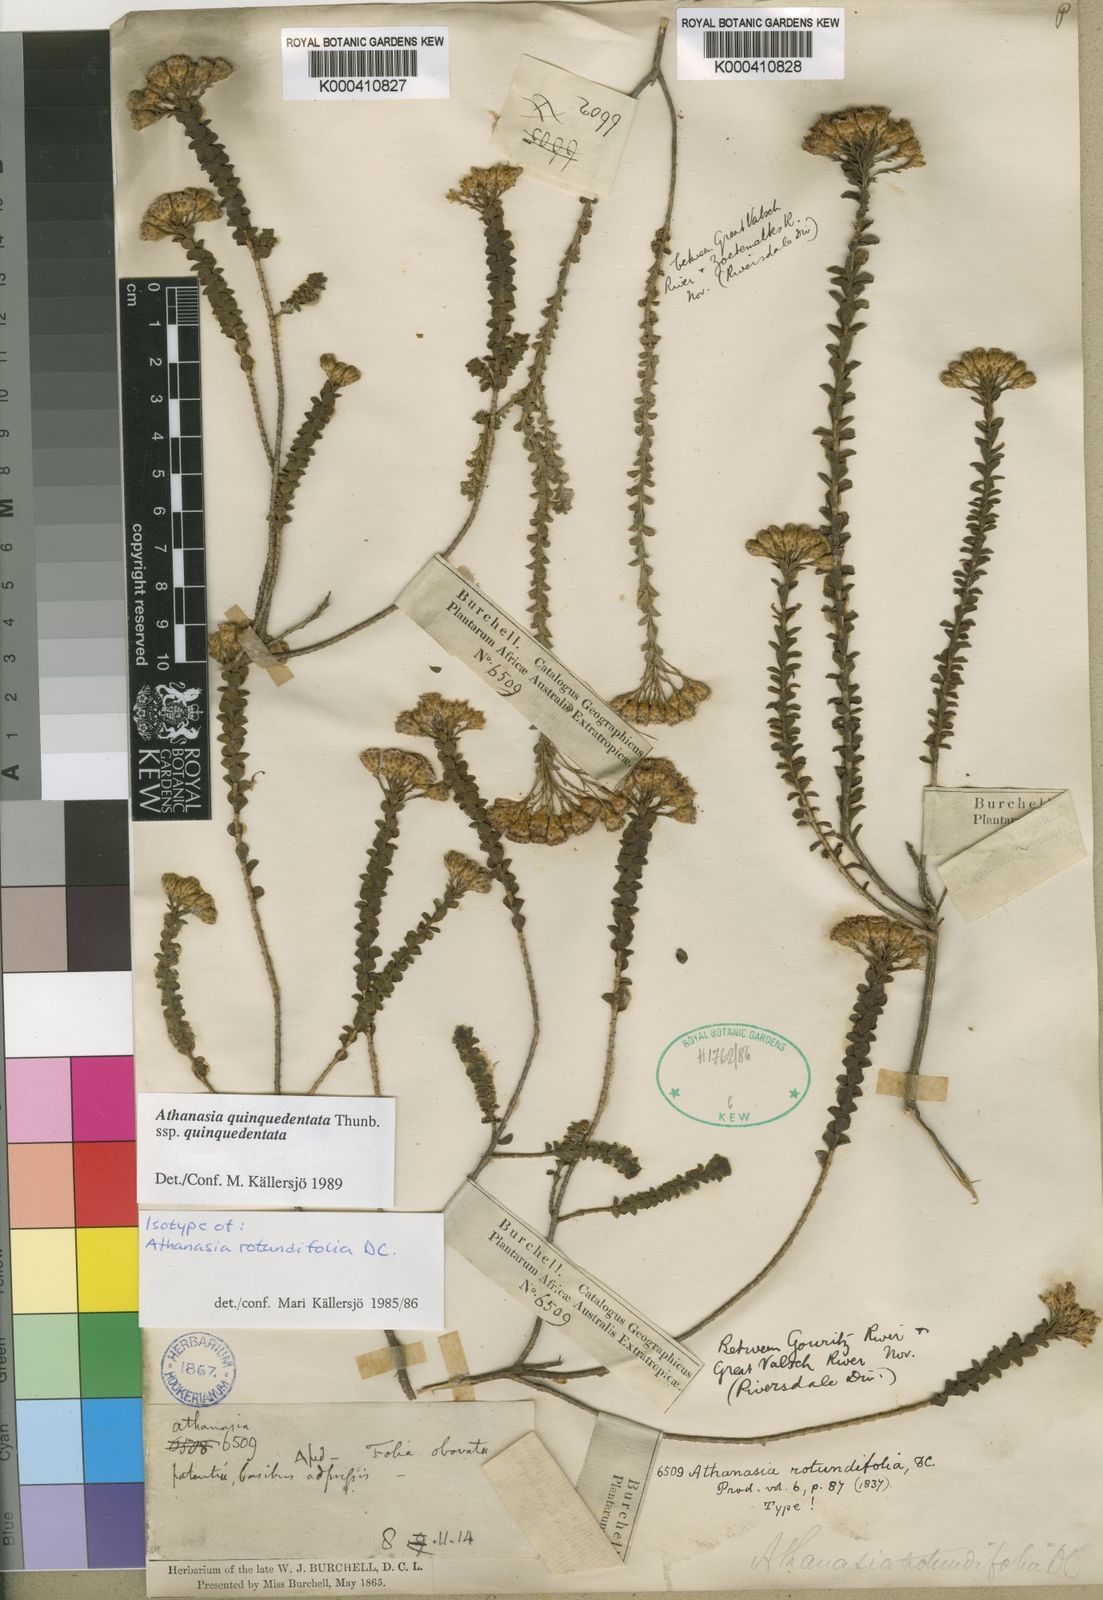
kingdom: Plantae
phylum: Tracheophyta
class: Magnoliopsida
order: Asterales
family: Asteraceae
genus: Athanasia
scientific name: Athanasia quinquedentata
